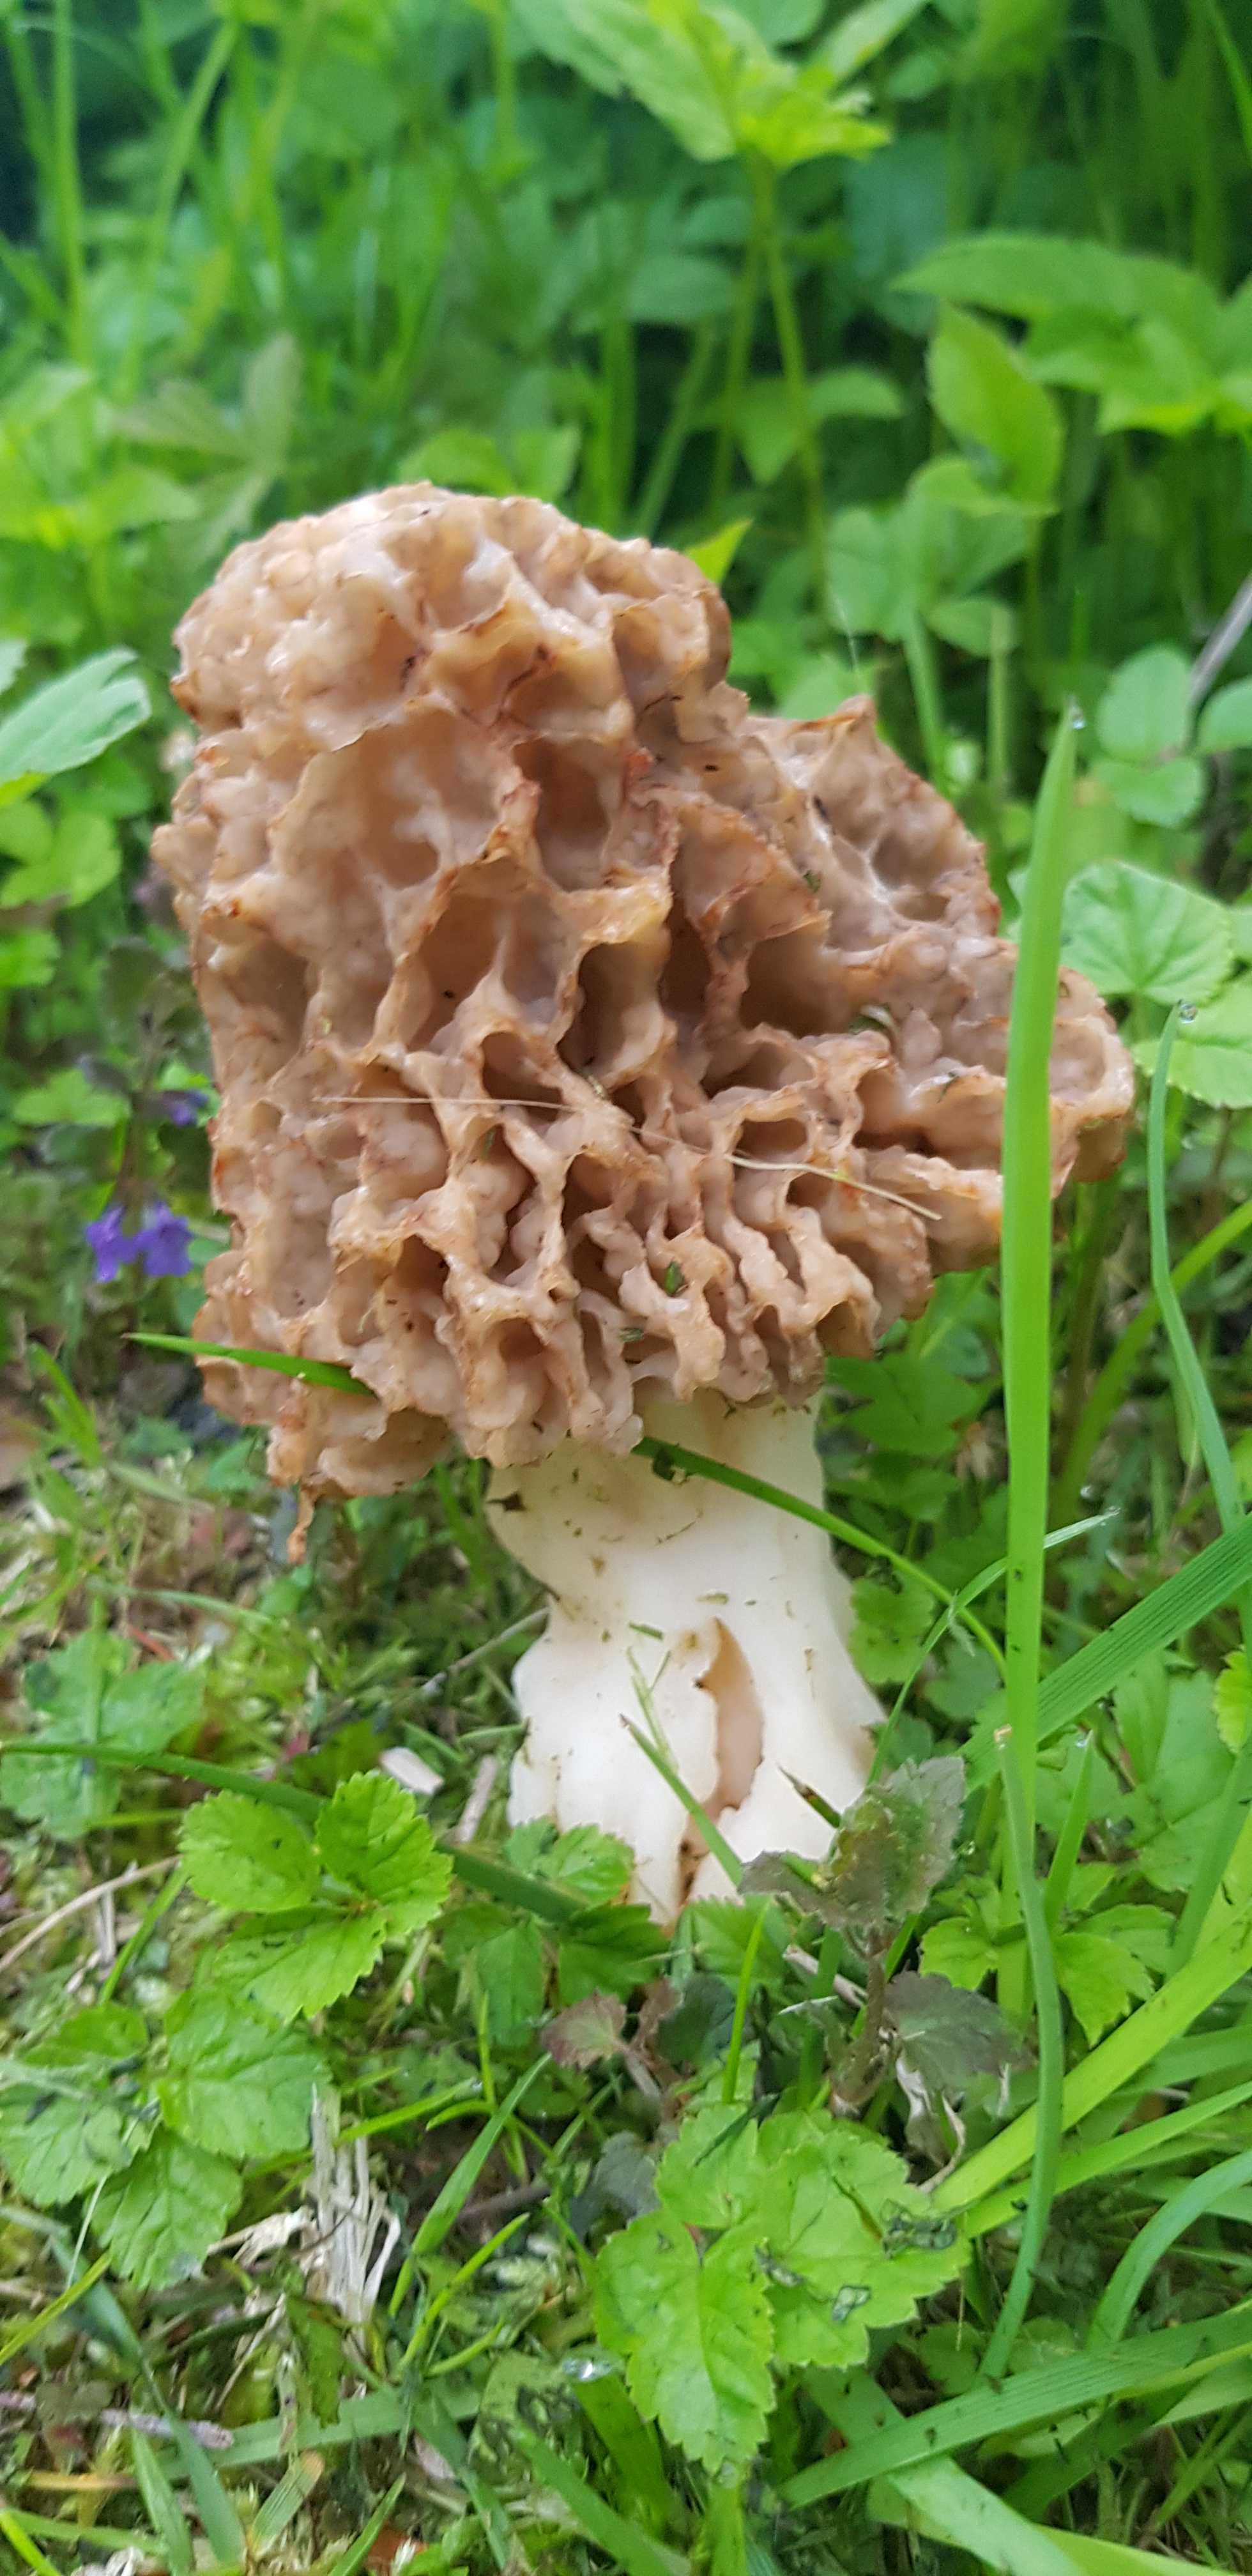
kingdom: Fungi
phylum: Ascomycota
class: Pezizomycetes
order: Pezizales
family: Morchellaceae
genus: Morchella
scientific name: Morchella esculenta
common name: almindelig morkel
